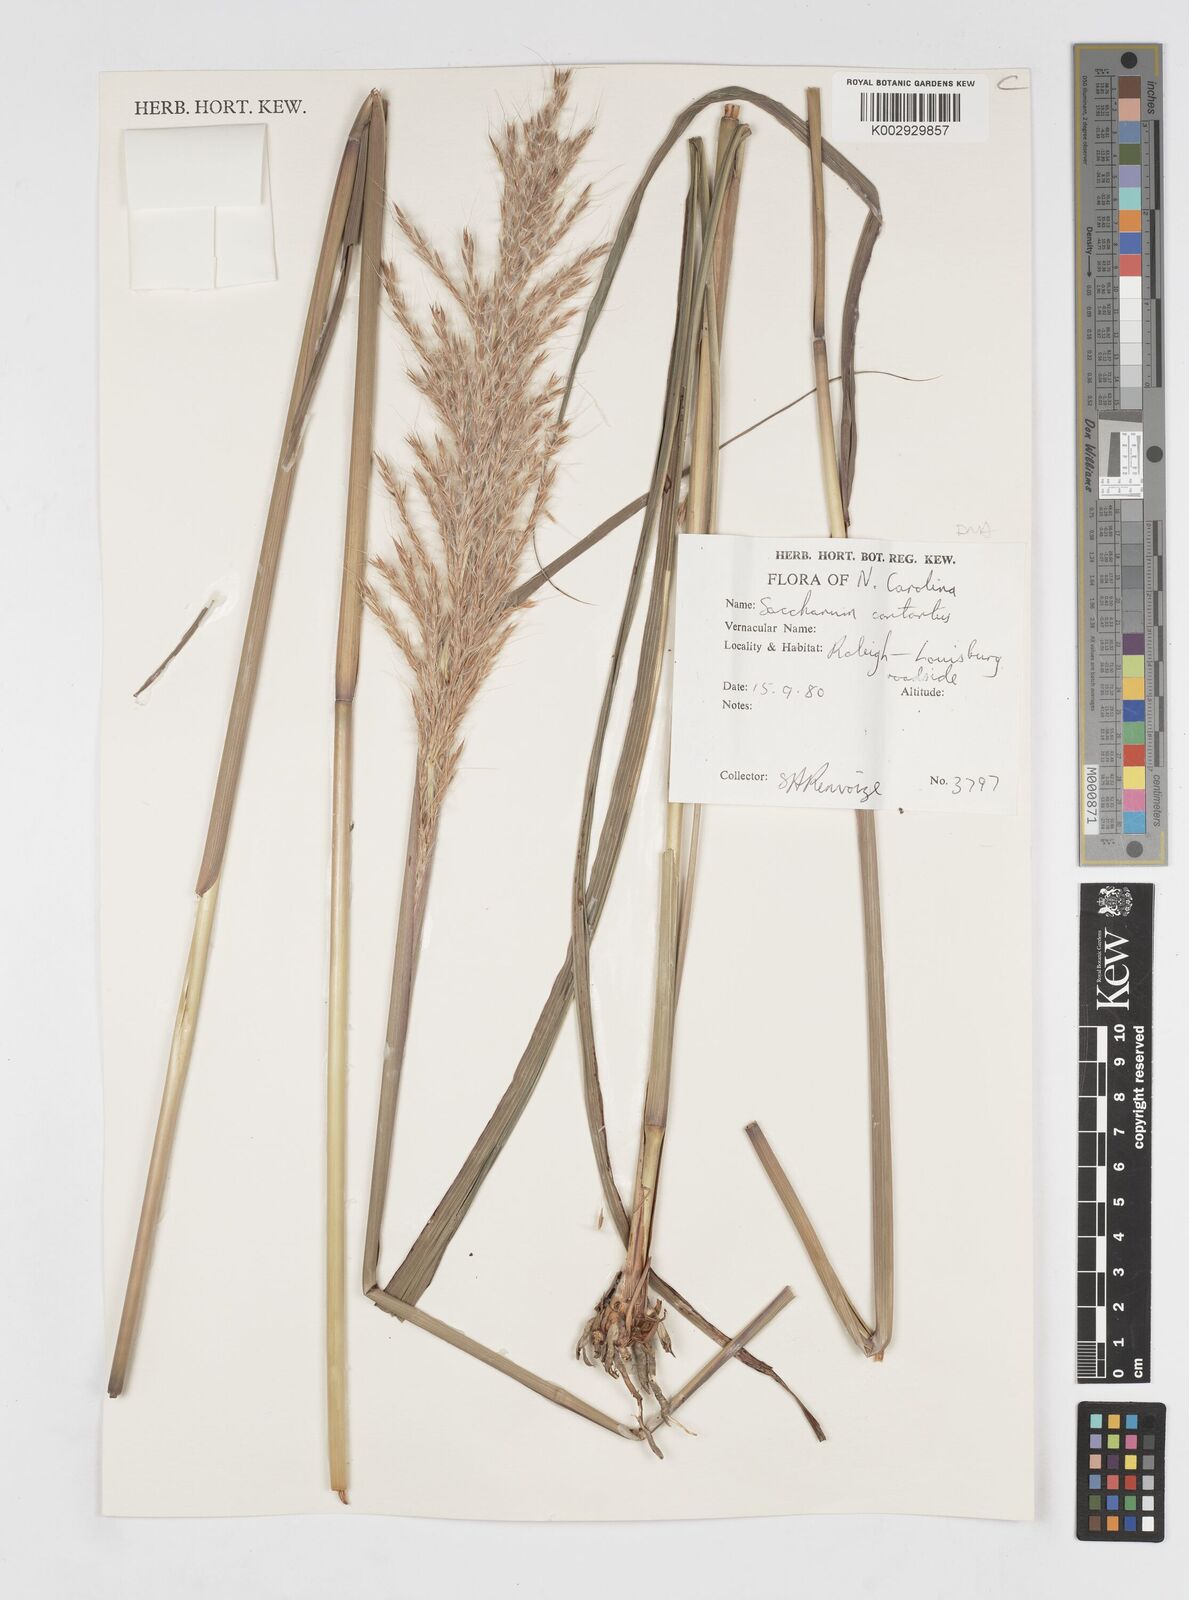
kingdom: Plantae
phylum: Tracheophyta
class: Liliopsida
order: Poales
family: Poaceae
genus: Erianthus
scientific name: Erianthus contortus
